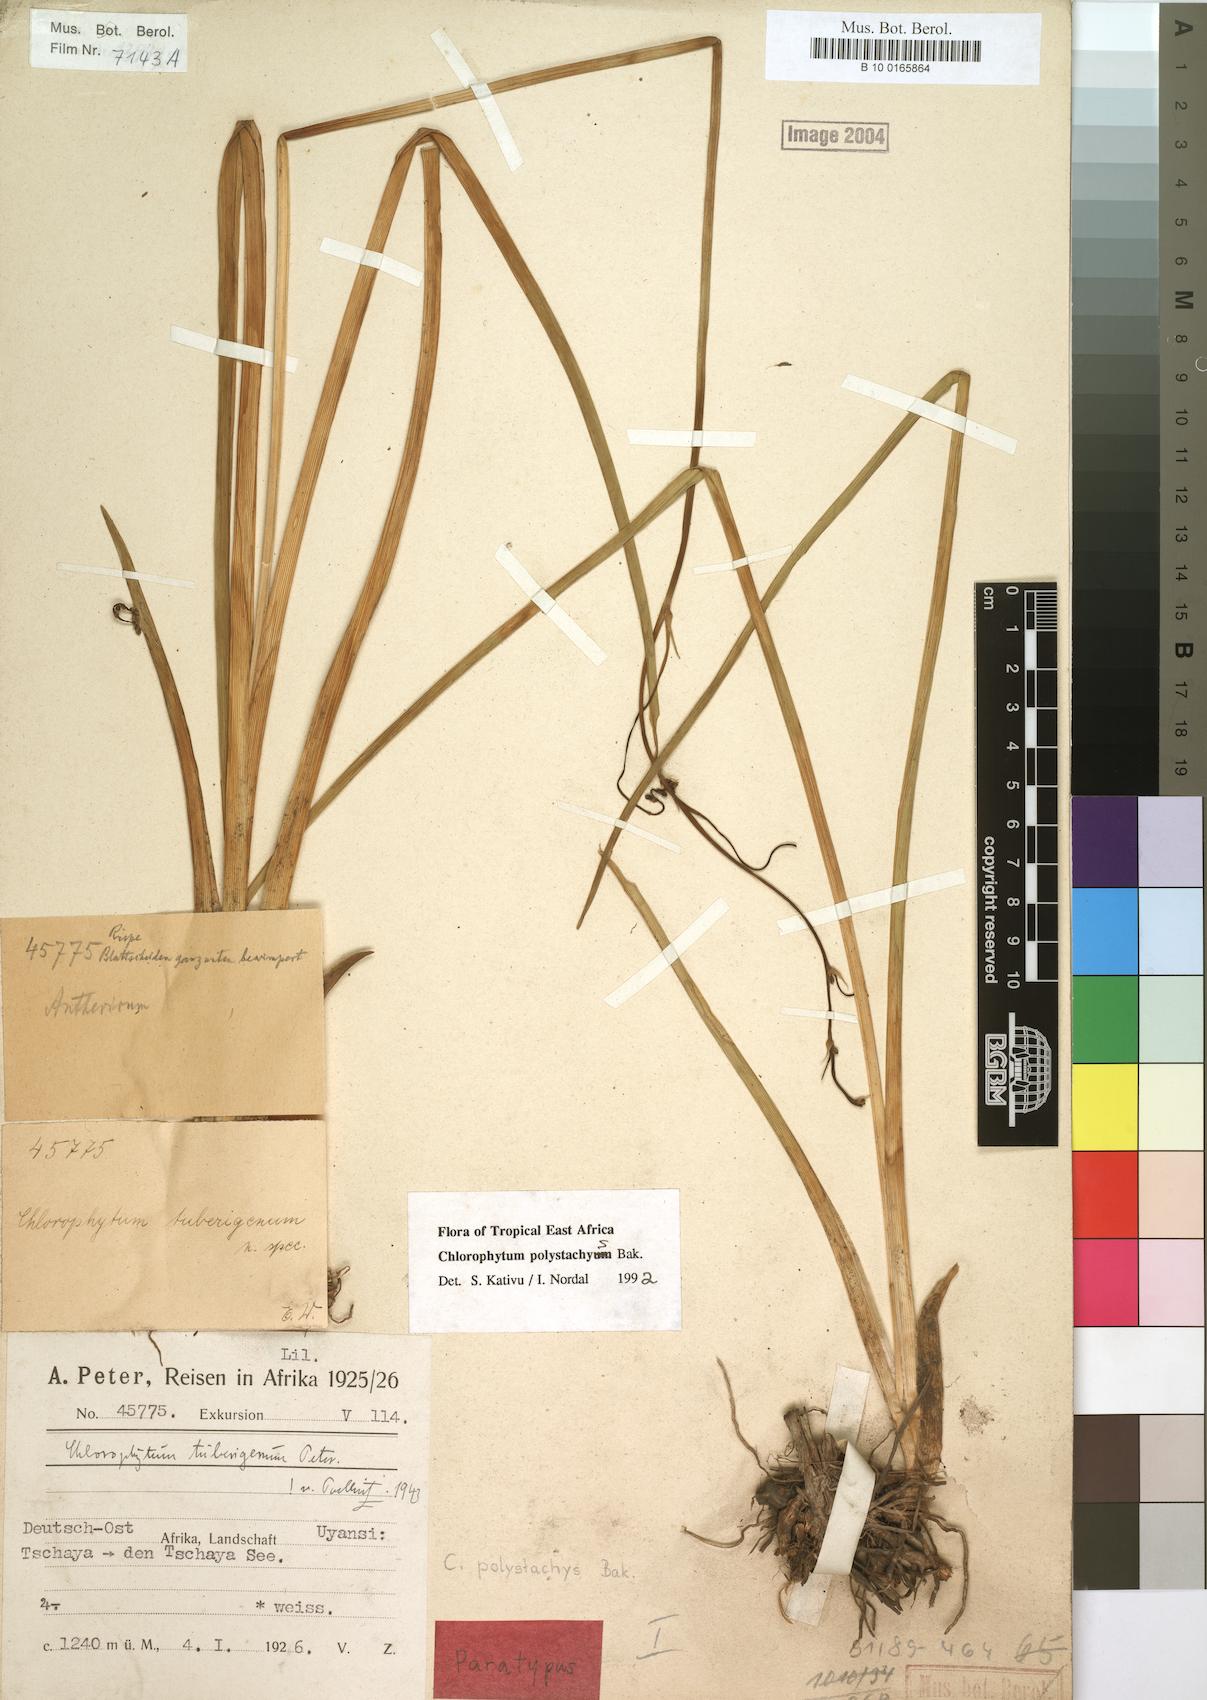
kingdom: Plantae
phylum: Tracheophyta
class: Liliopsida
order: Asparagales
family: Asparagaceae
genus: Chlorophytum
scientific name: Chlorophytum polystachys
